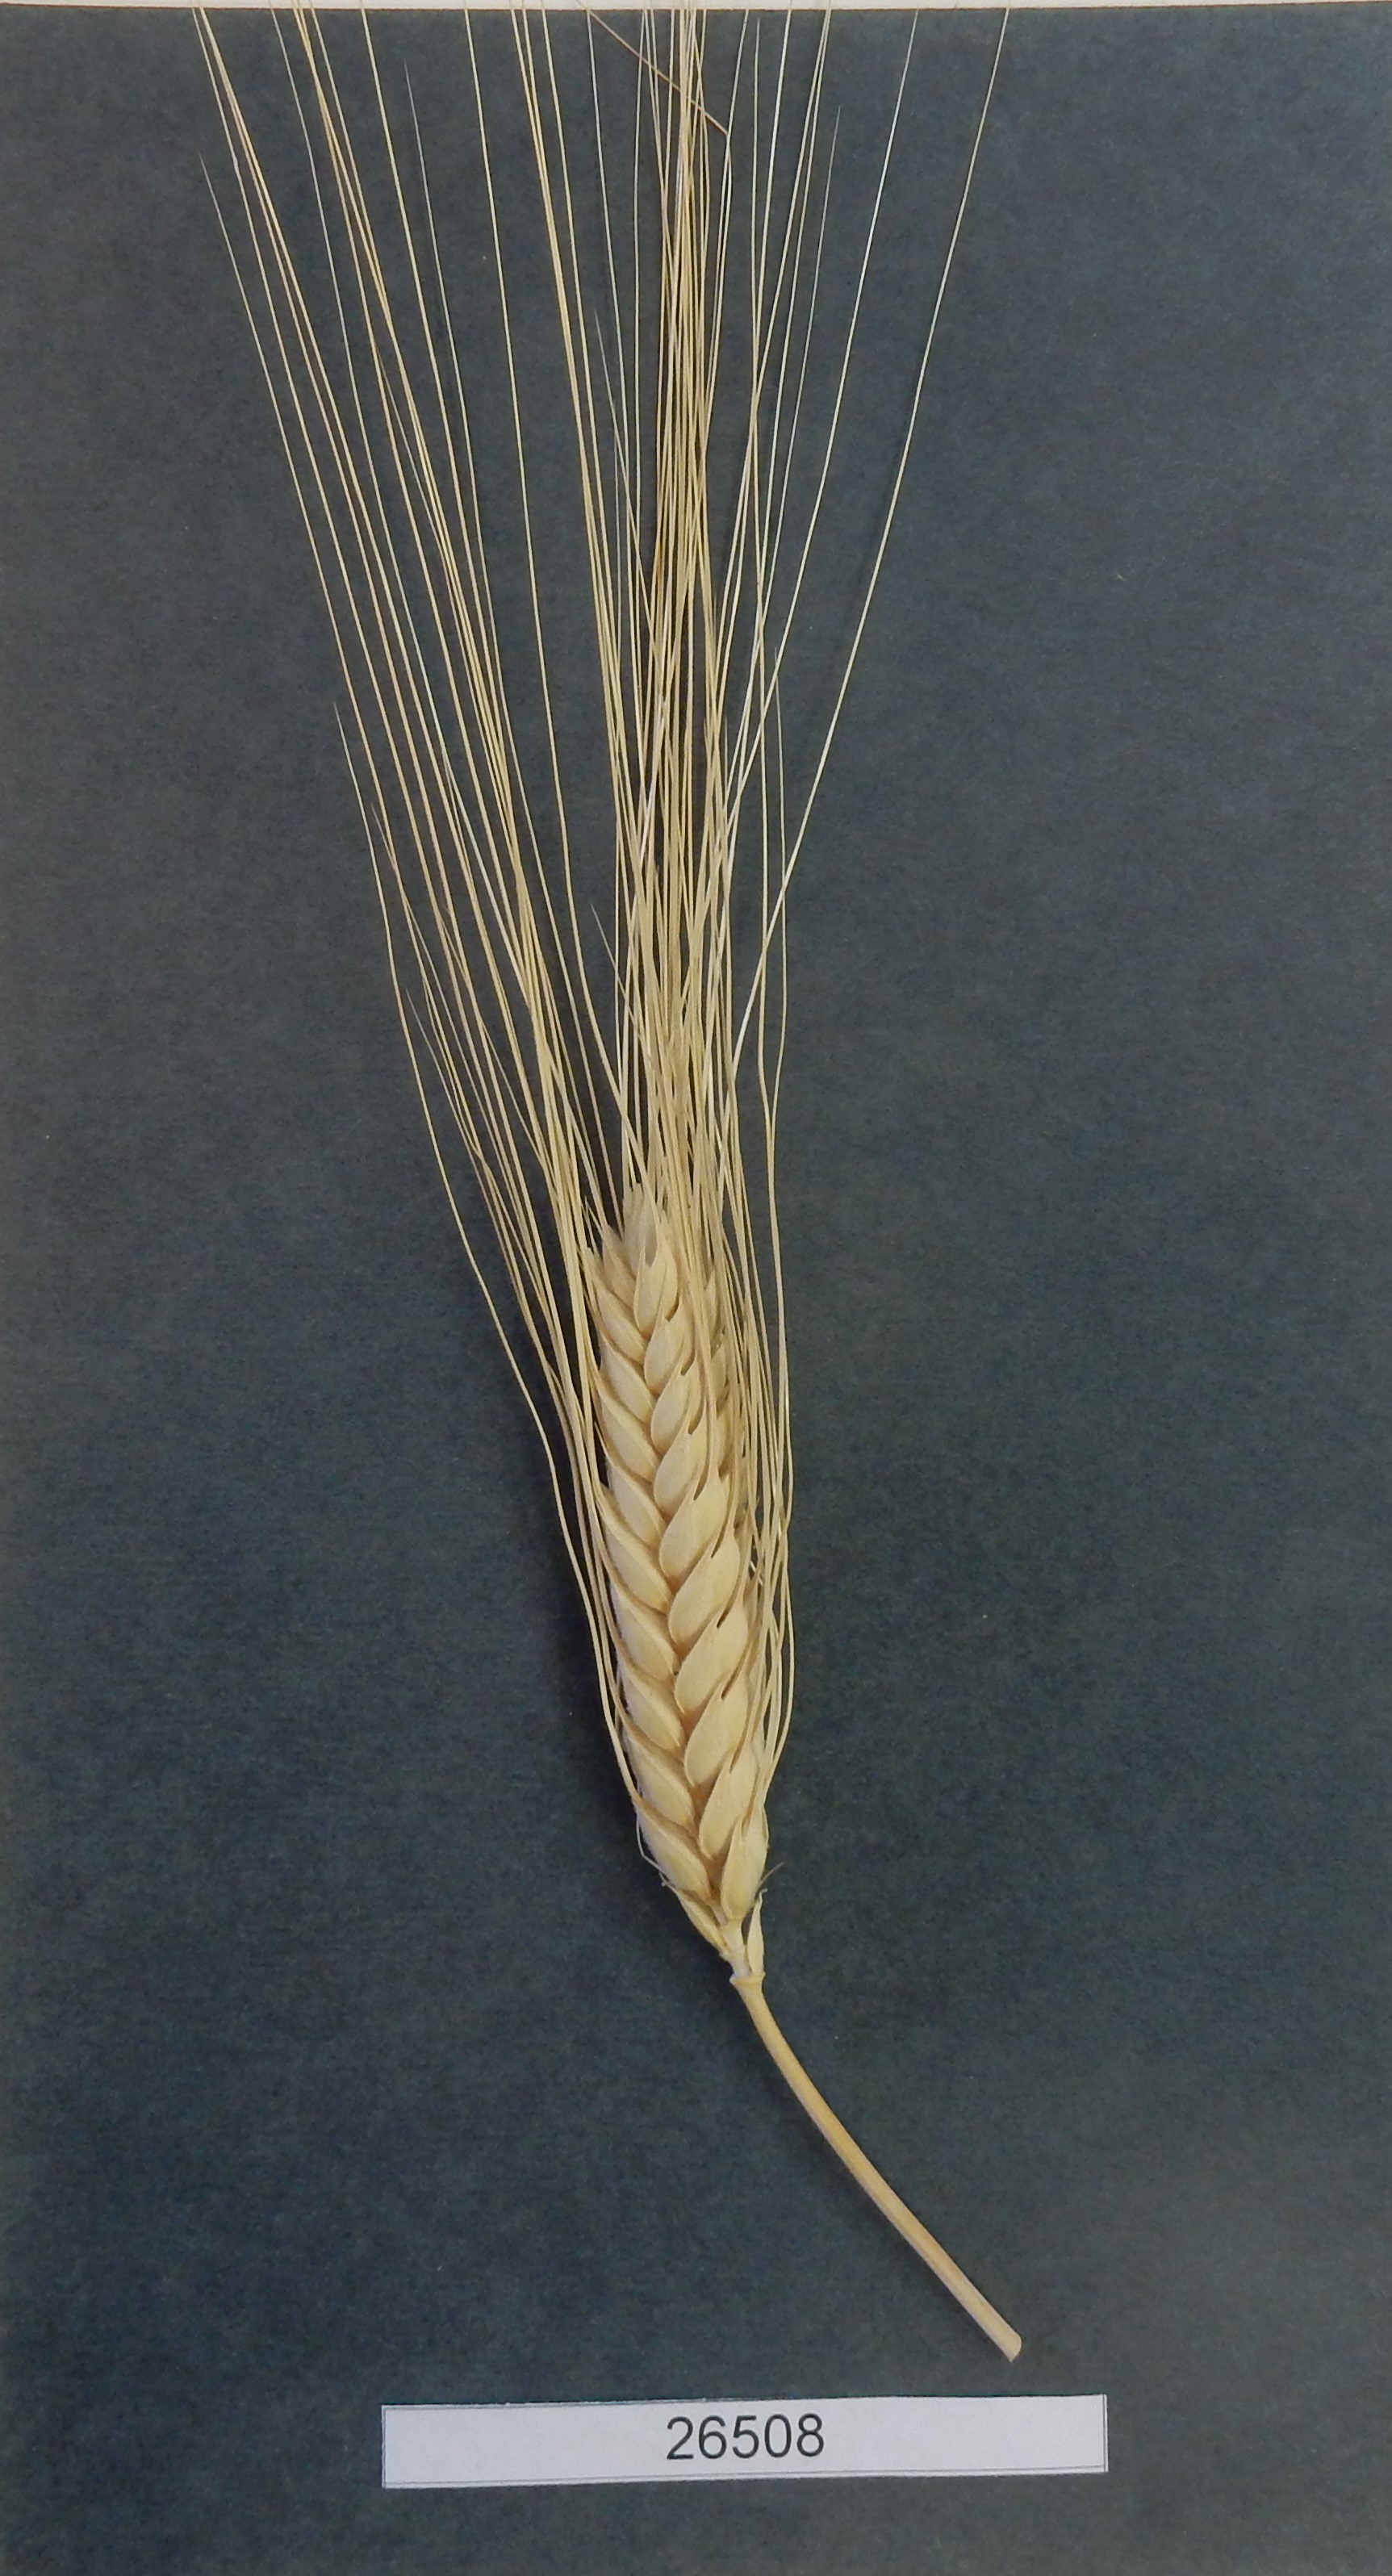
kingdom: Plantae
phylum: Tracheophyta
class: Liliopsida
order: Poales
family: Poaceae
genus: Triticum
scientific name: Triticum turgidum
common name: Wheat
